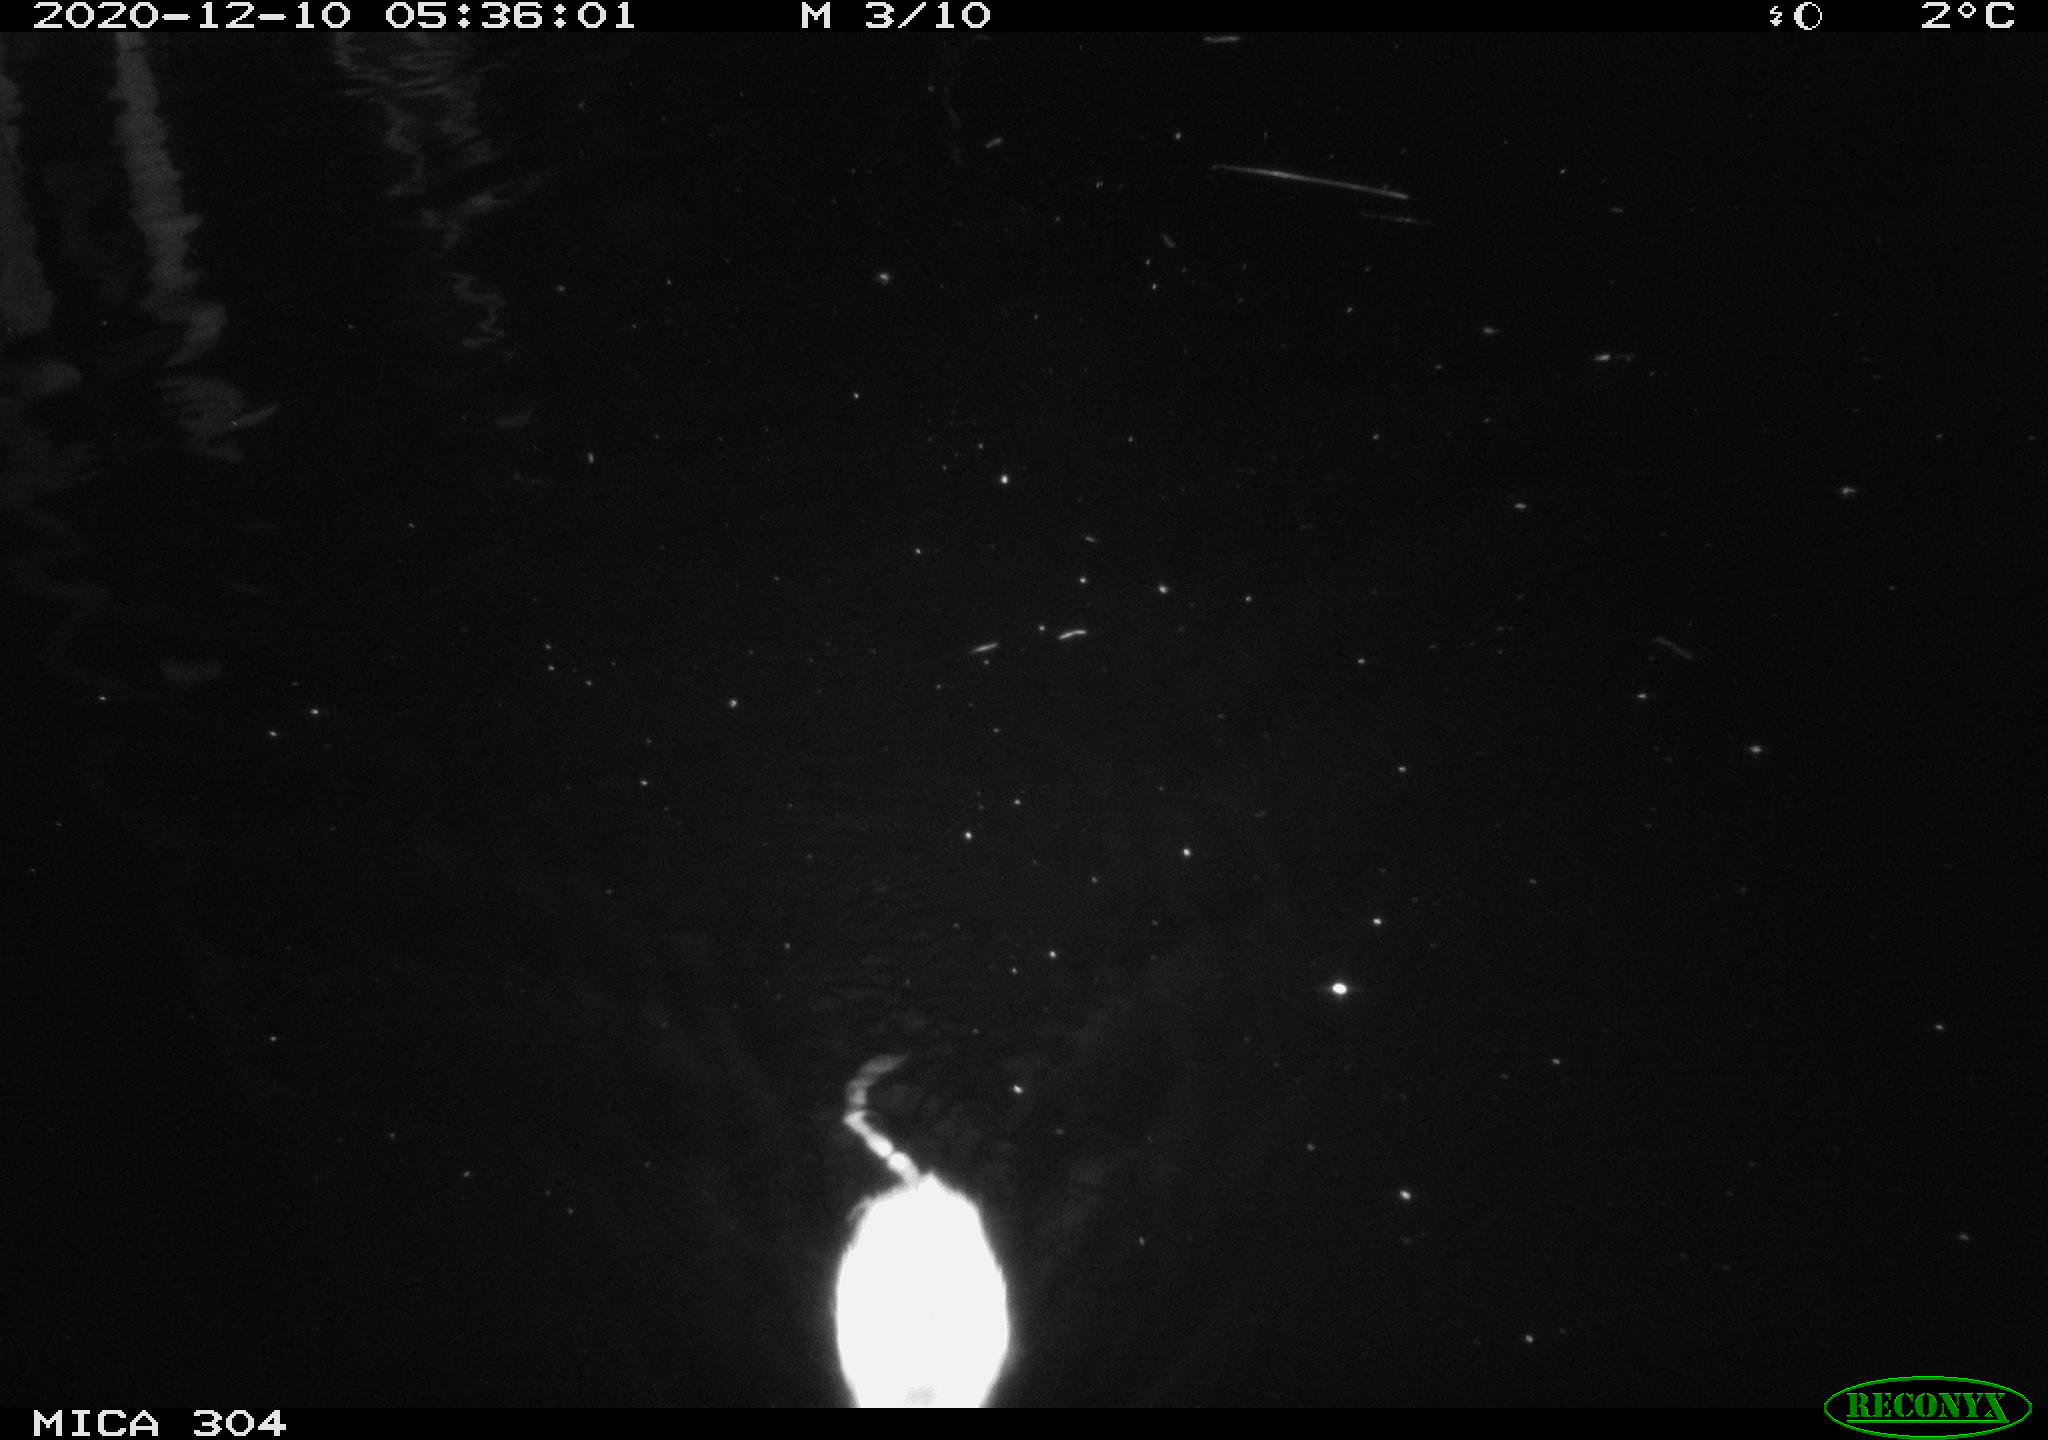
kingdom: Animalia
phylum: Chordata
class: Mammalia
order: Rodentia
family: Muridae
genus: Rattus
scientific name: Rattus norvegicus
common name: Brown rat
